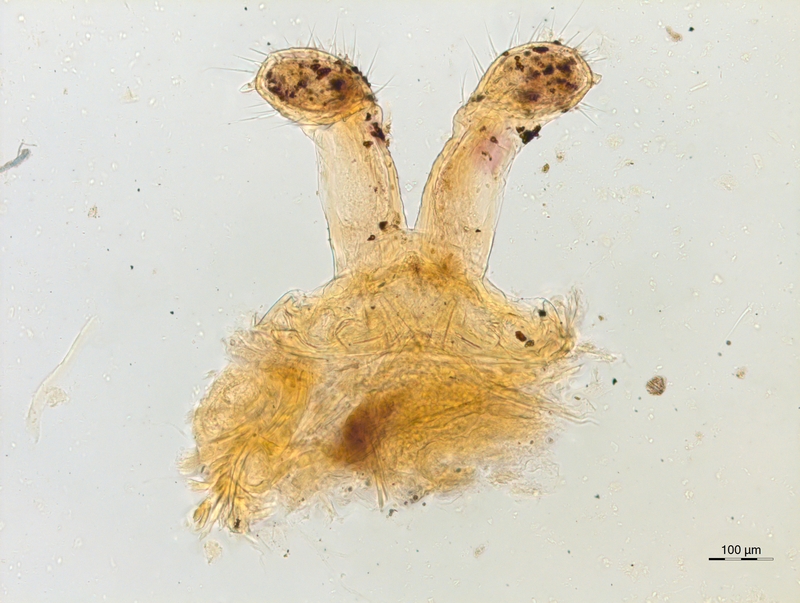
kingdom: Animalia
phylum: Arthropoda
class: Diplopoda
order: Chordeumatida
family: Attemsiidae
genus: Tylogonium
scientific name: Tylogonium nivifidele
